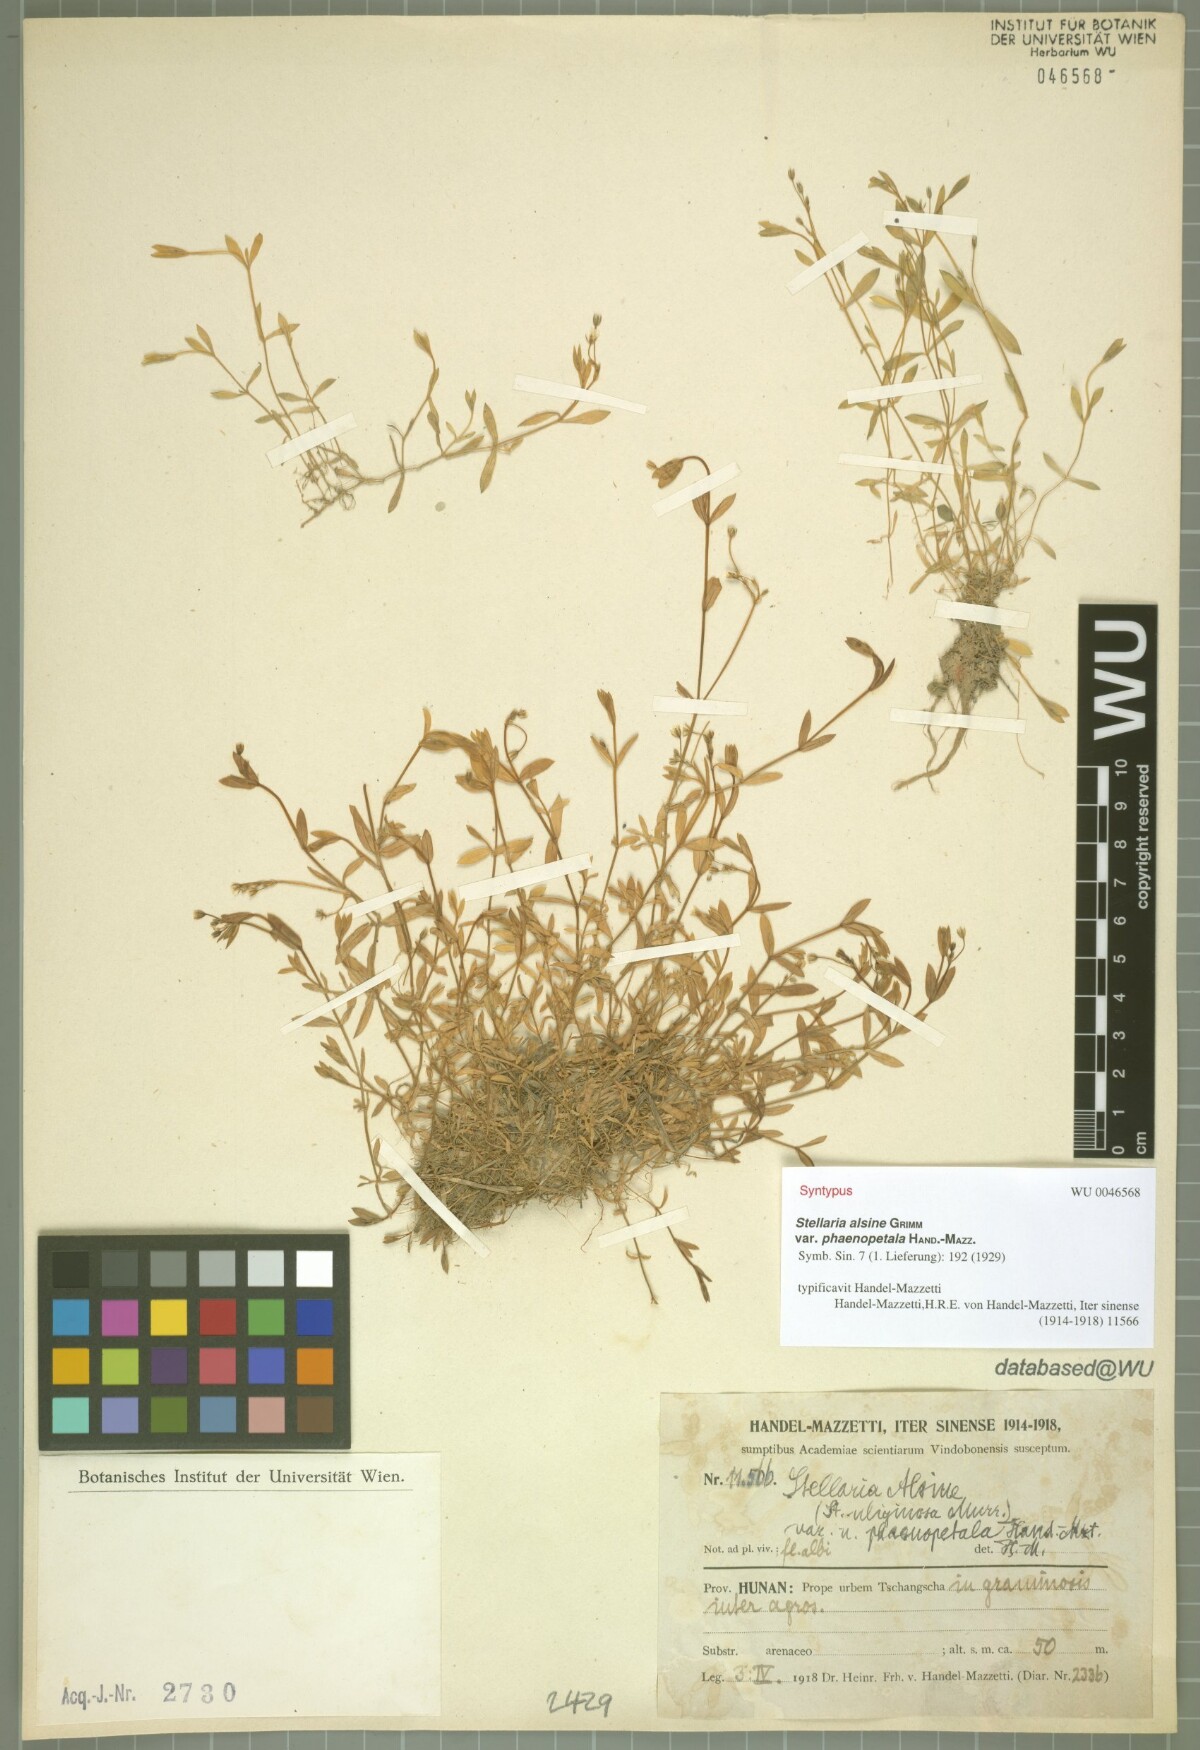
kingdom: Plantae
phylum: Tracheophyta
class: Magnoliopsida
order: Caryophyllales
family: Caryophyllaceae
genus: Stellaria
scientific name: Stellaria alsine
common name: Bog stitchwort
